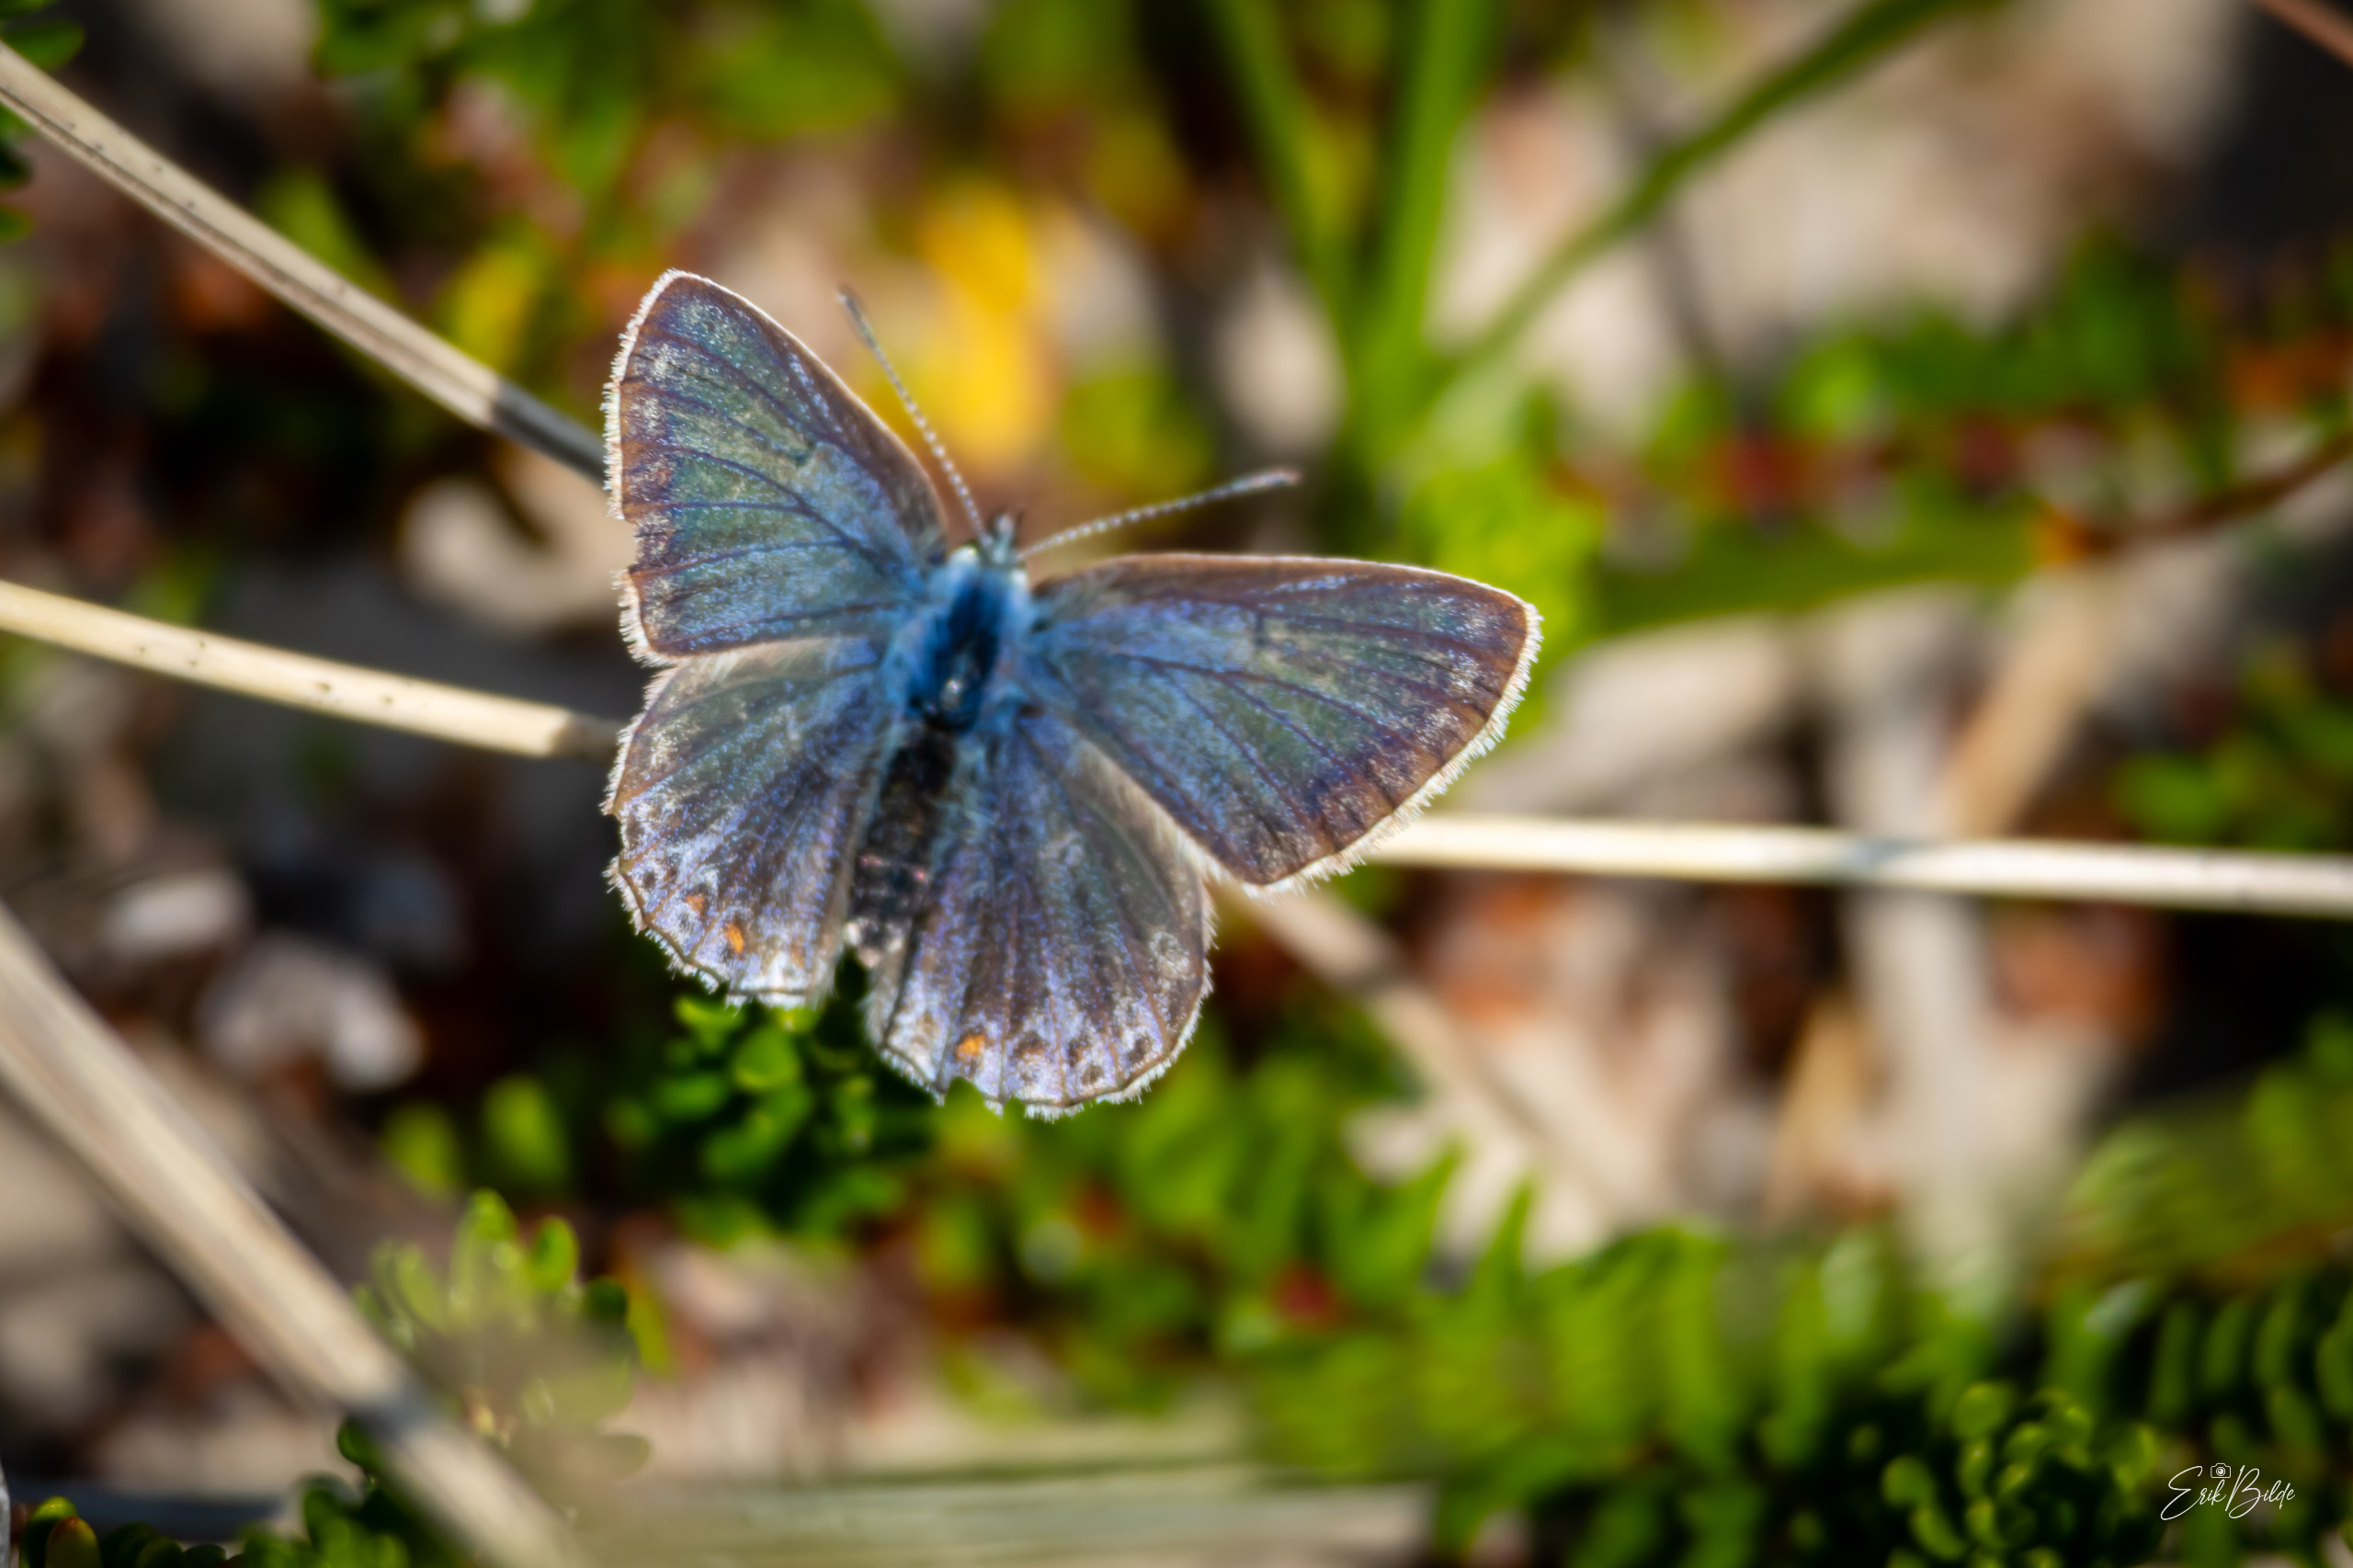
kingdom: Animalia
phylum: Arthropoda
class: Insecta
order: Lepidoptera
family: Lycaenidae
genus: Polyommatus
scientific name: Polyommatus icarus
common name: Almindelig blåfugl
